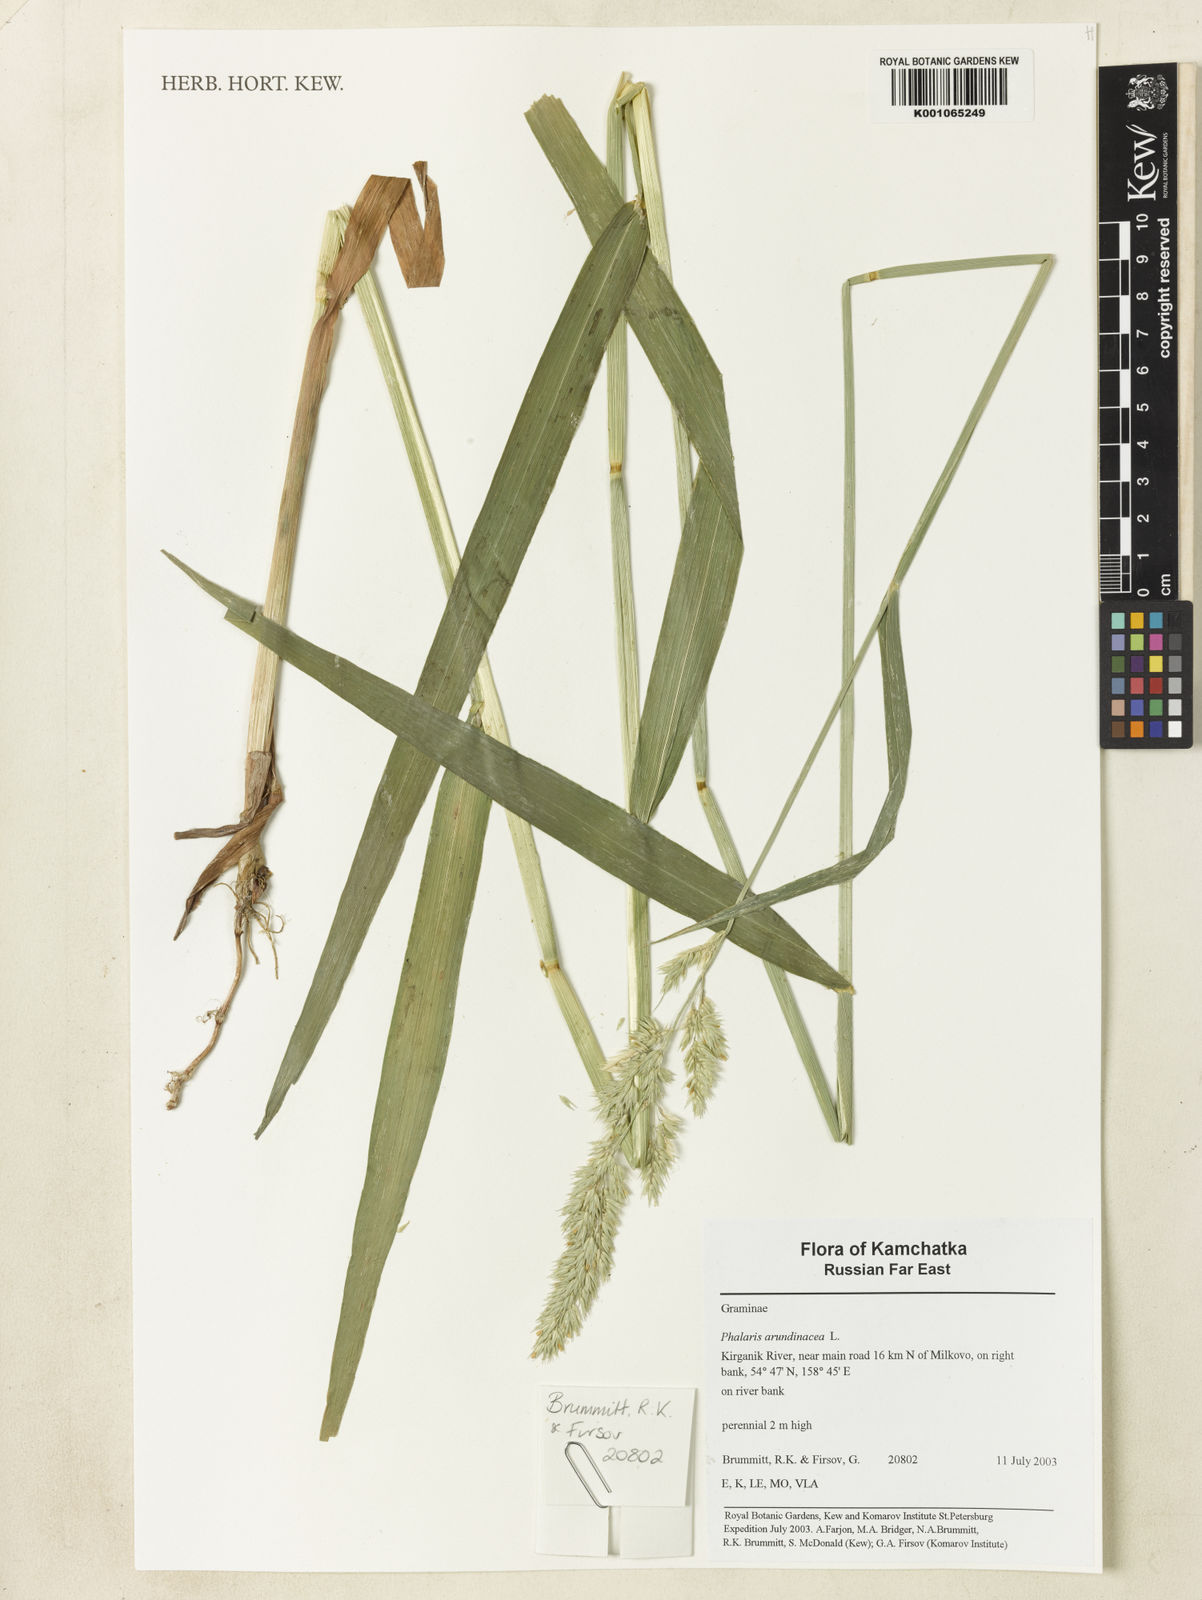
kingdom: Plantae
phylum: Tracheophyta
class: Liliopsida
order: Poales
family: Poaceae
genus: Phalaris
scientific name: Phalaris arundinacea
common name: Reed canary-grass
